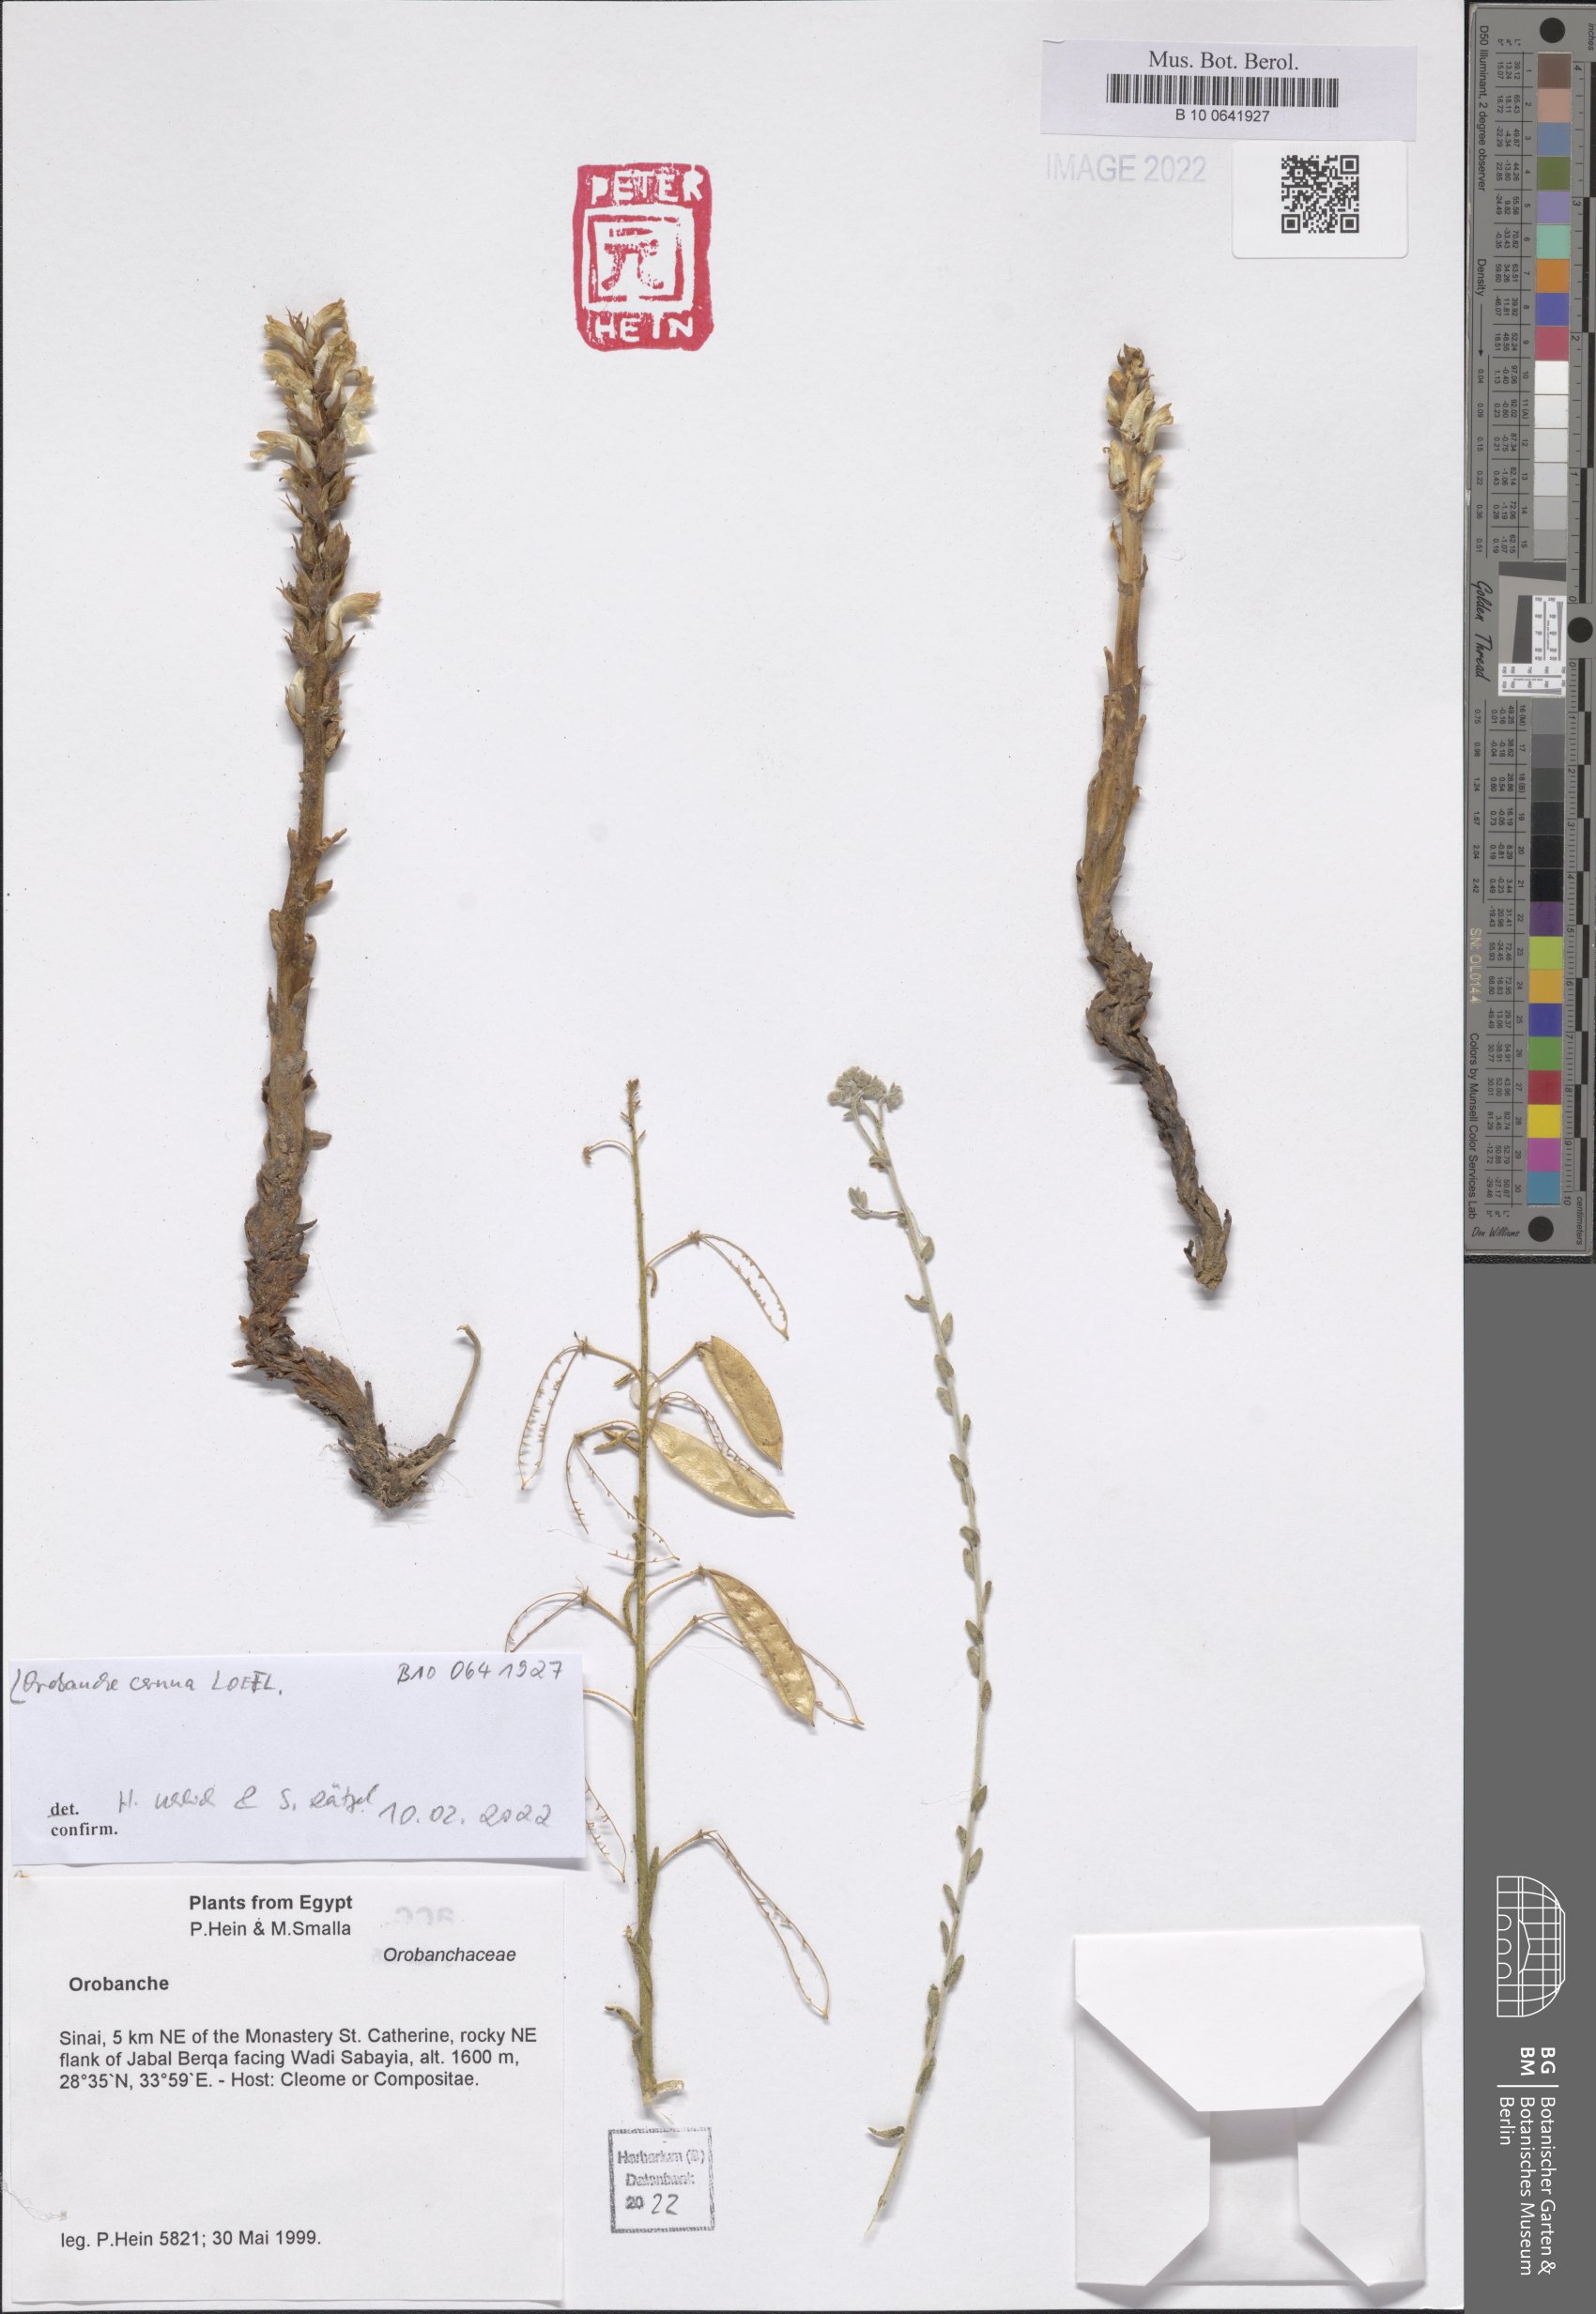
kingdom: Plantae
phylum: Tracheophyta
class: Magnoliopsida
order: Lamiales
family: Orobanchaceae
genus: Orobanche
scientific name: Orobanche cernua
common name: Australian broomrape
